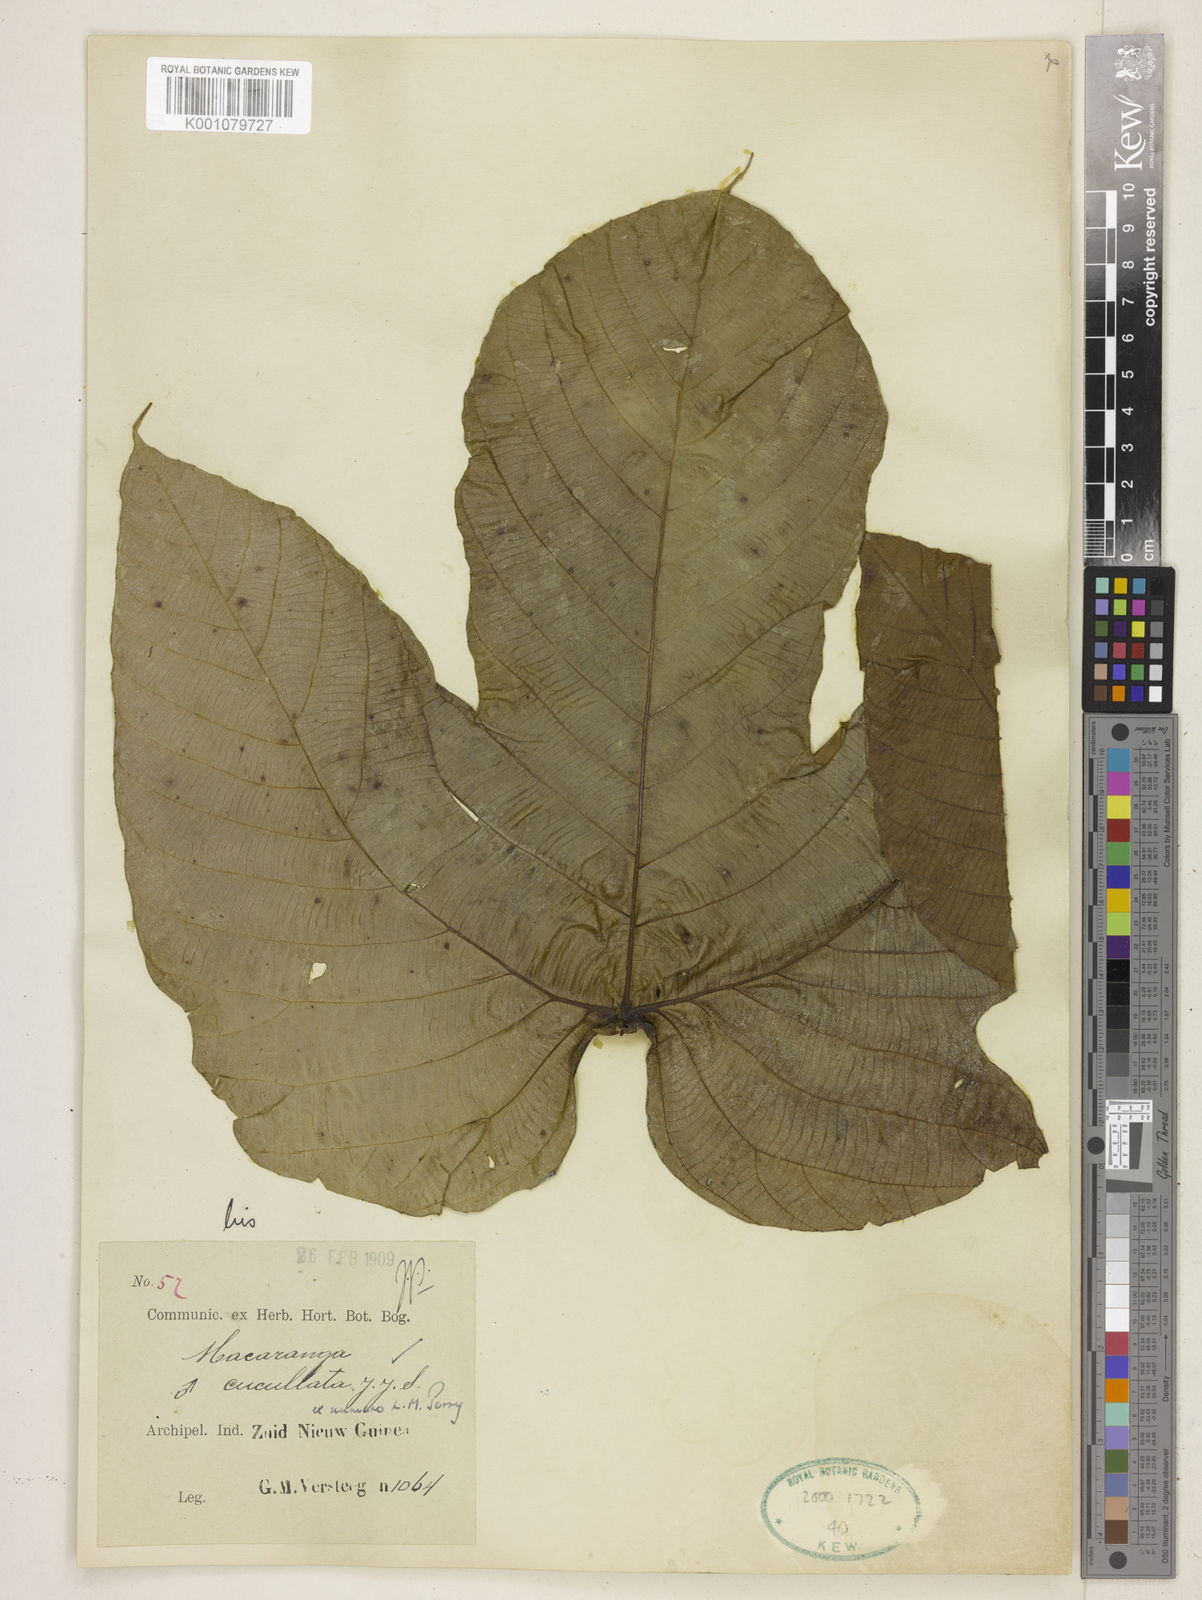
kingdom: Plantae
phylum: Tracheophyta
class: Magnoliopsida
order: Malpighiales
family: Euphorbiaceae
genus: Macaranga
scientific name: Macaranga cucullata
